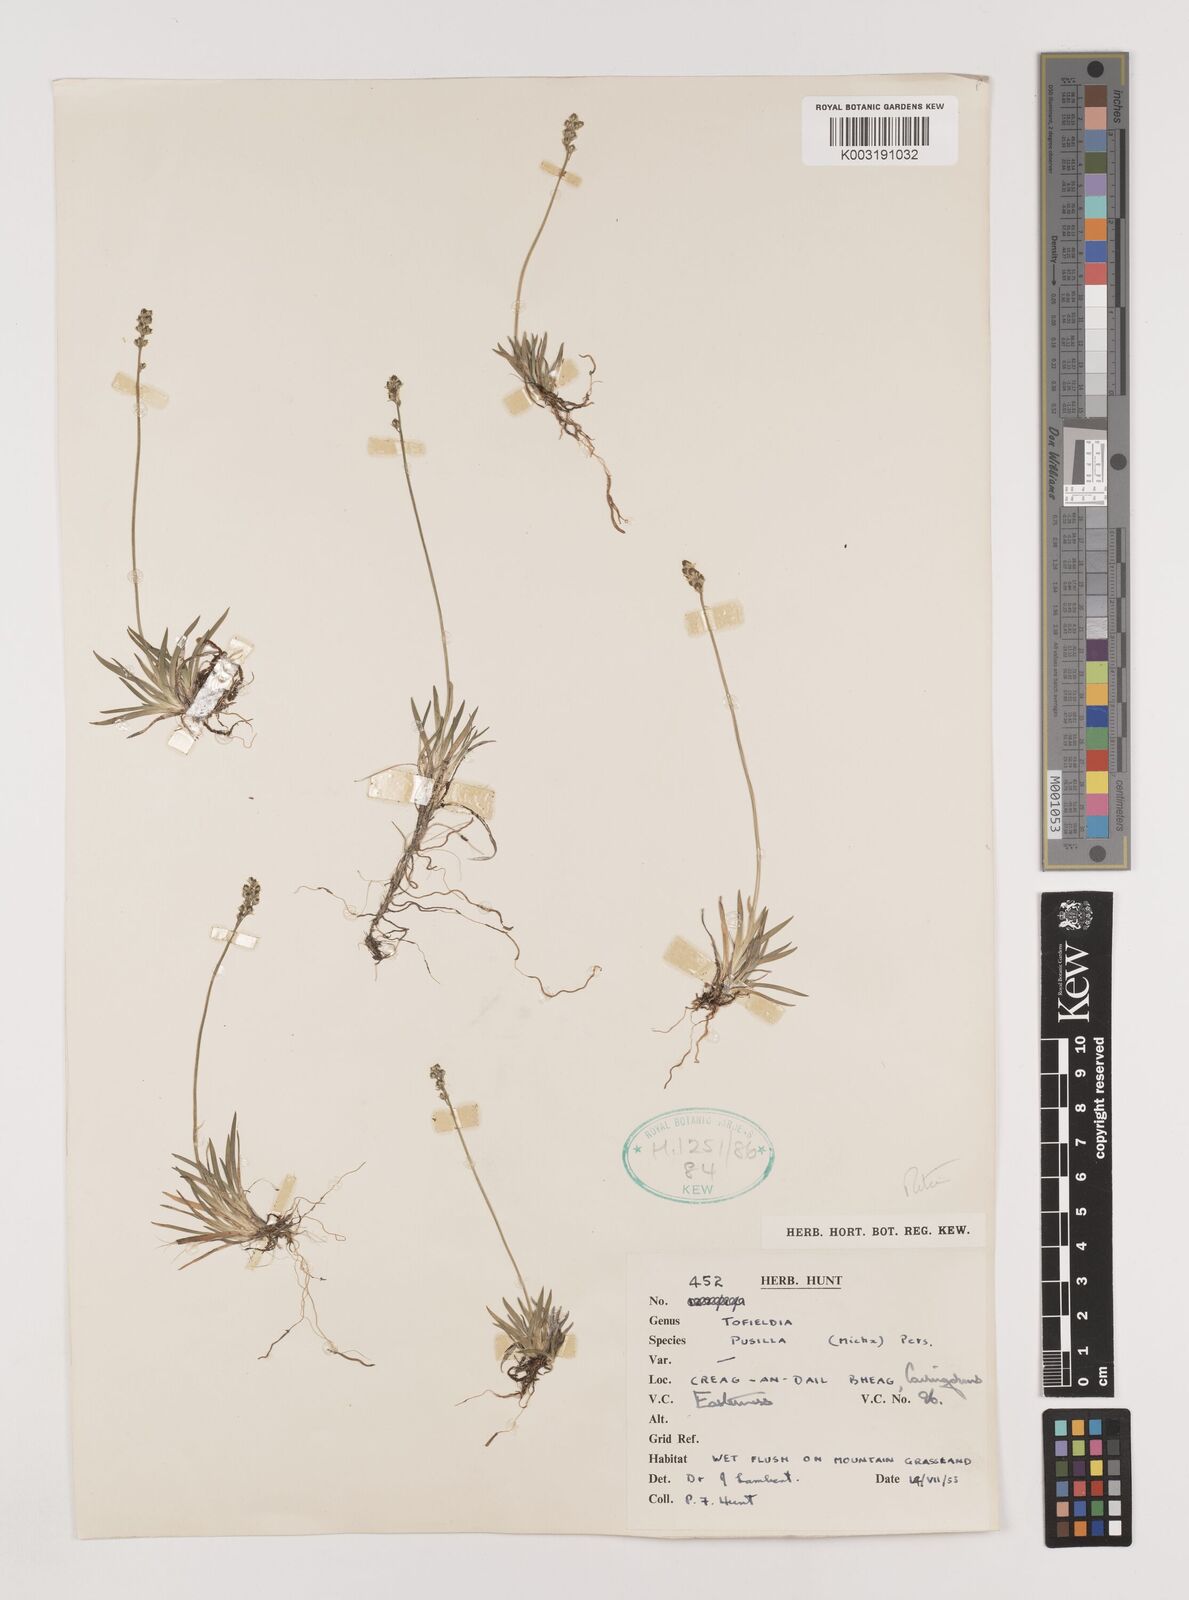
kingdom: Plantae
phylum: Tracheophyta
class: Liliopsida
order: Alismatales
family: Tofieldiaceae
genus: Tofieldia
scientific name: Tofieldia pusilla
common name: Scottish false asphodel
